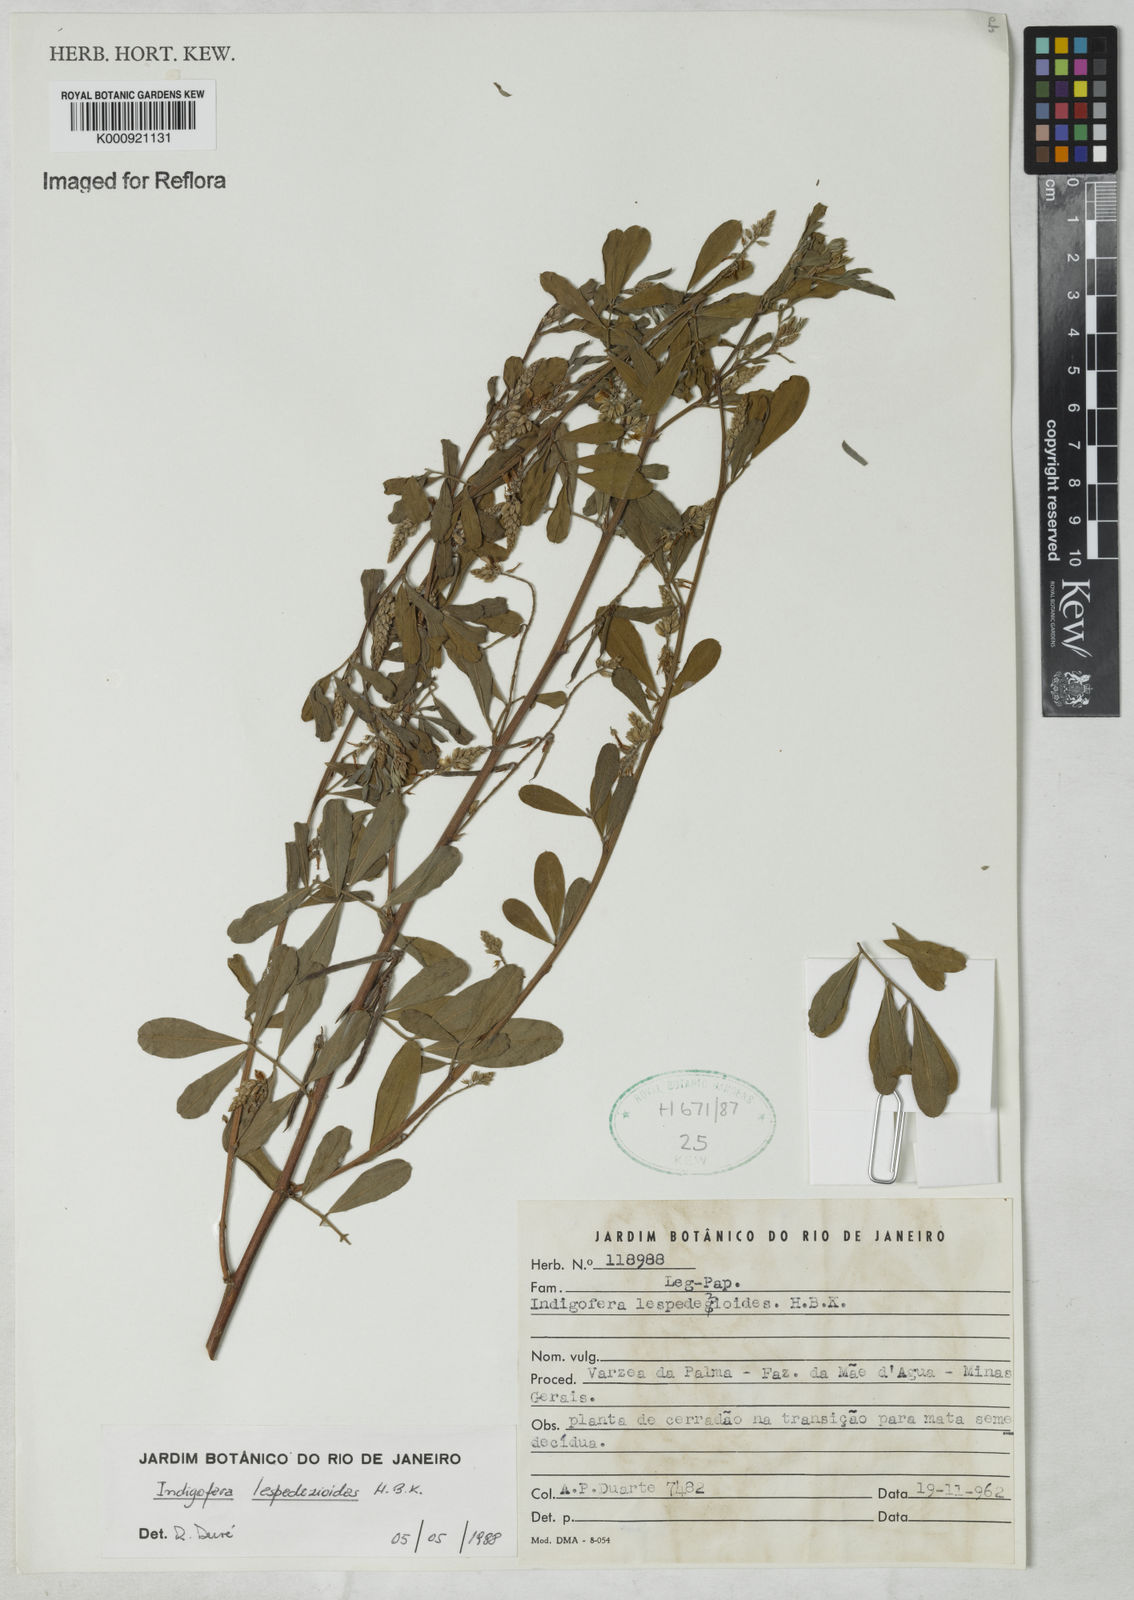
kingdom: Plantae
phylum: Tracheophyta
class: Magnoliopsida
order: Fabales
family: Fabaceae
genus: Indigofera
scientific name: Indigofera lespedezioides
